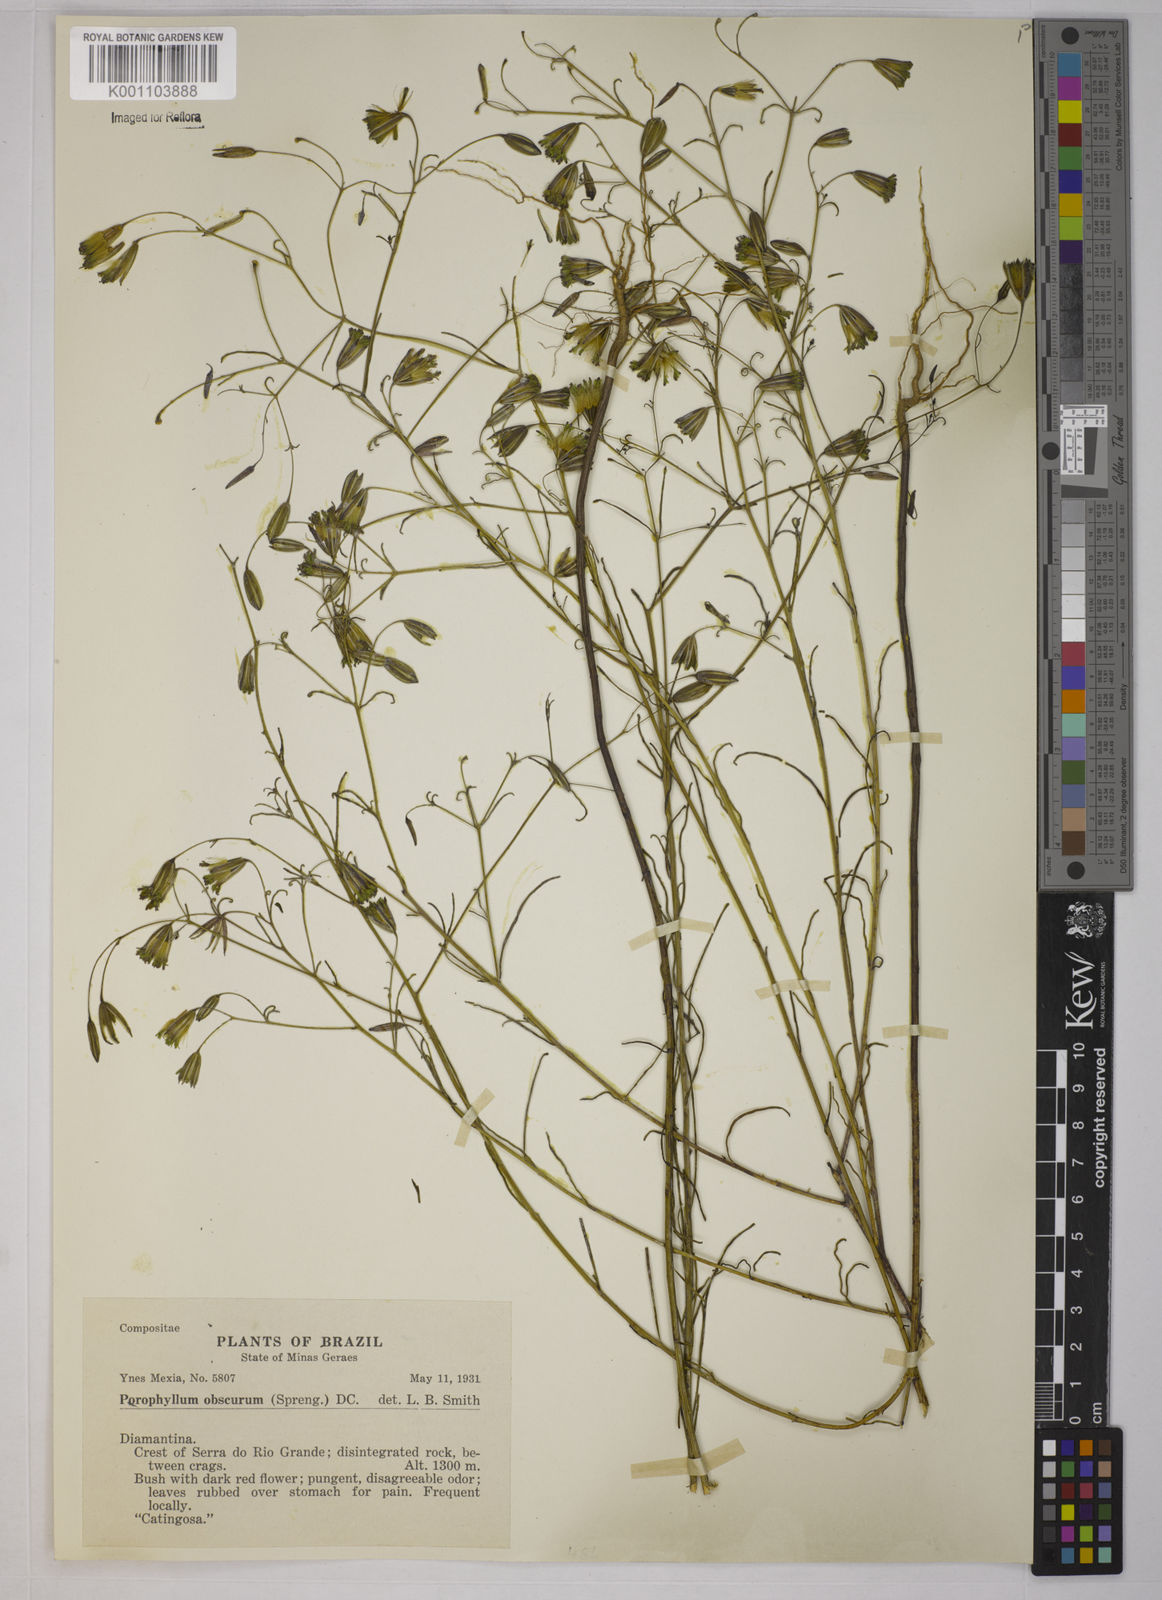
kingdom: Plantae
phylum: Tracheophyta
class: Magnoliopsida
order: Asterales
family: Asteraceae
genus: Porophyllum
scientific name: Porophyllum obscurum
